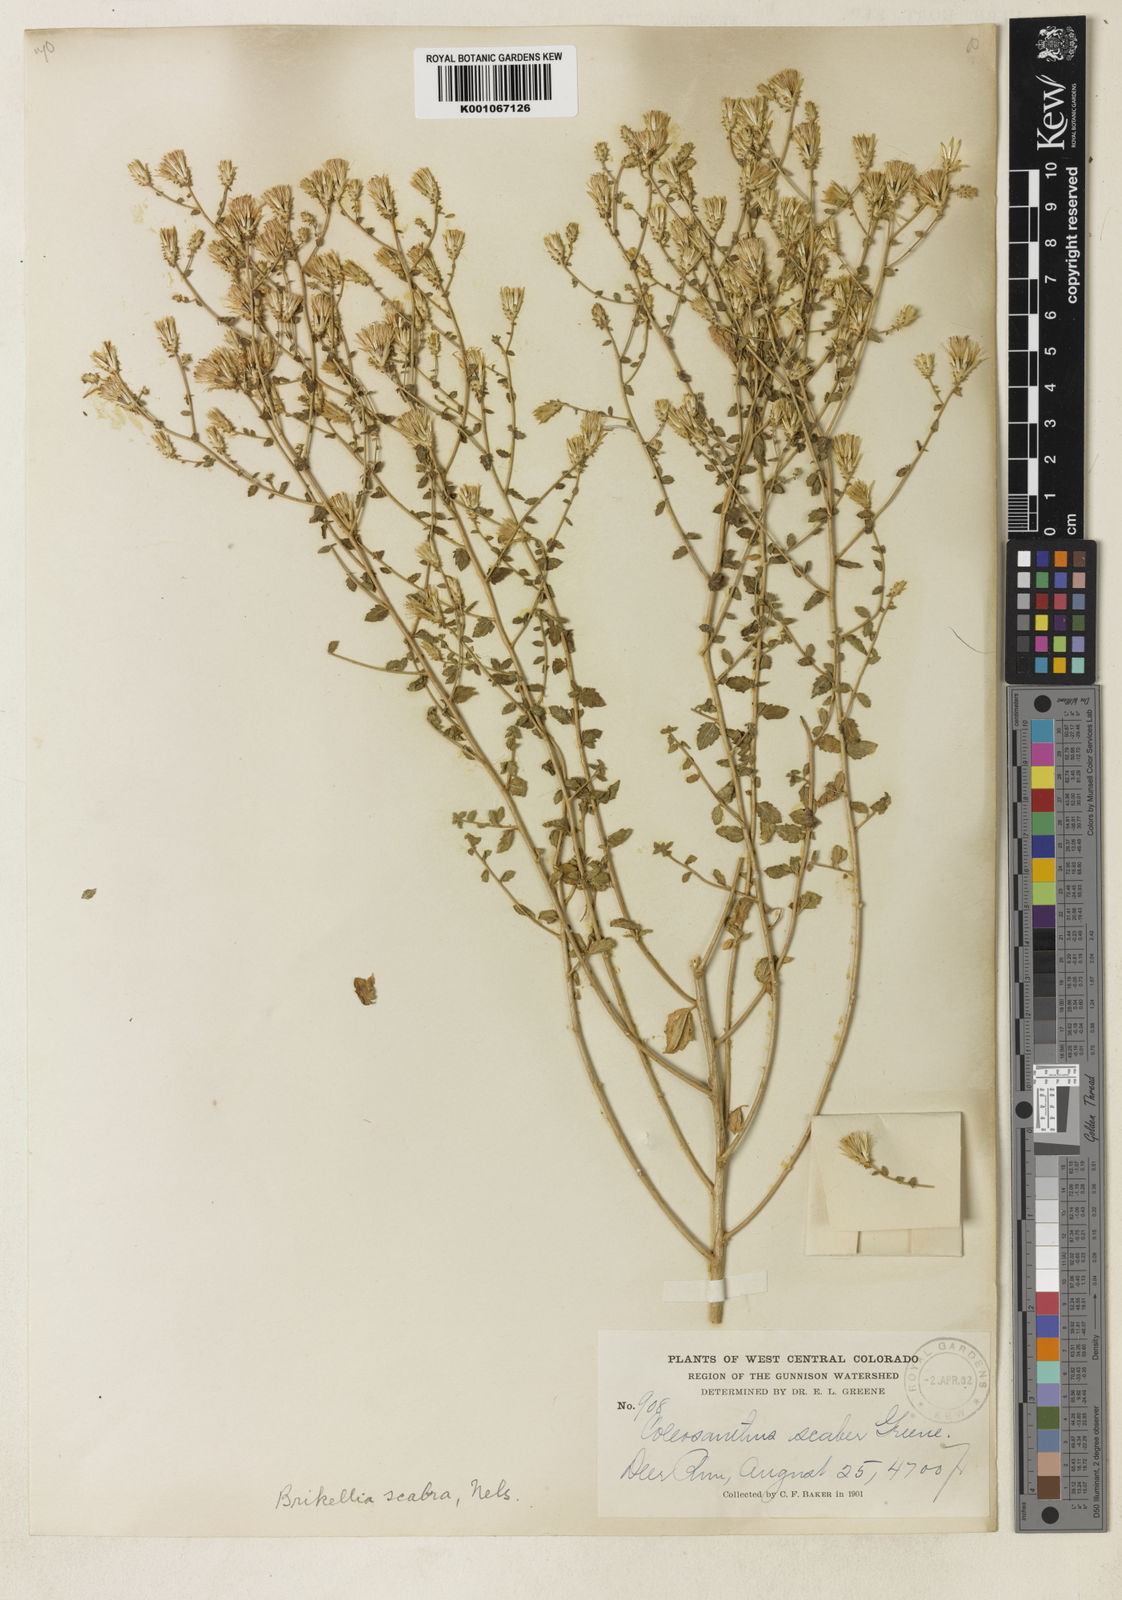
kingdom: Plantae
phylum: Tracheophyta
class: Magnoliopsida
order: Asterales
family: Asteraceae
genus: Brickellia
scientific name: Brickellia
